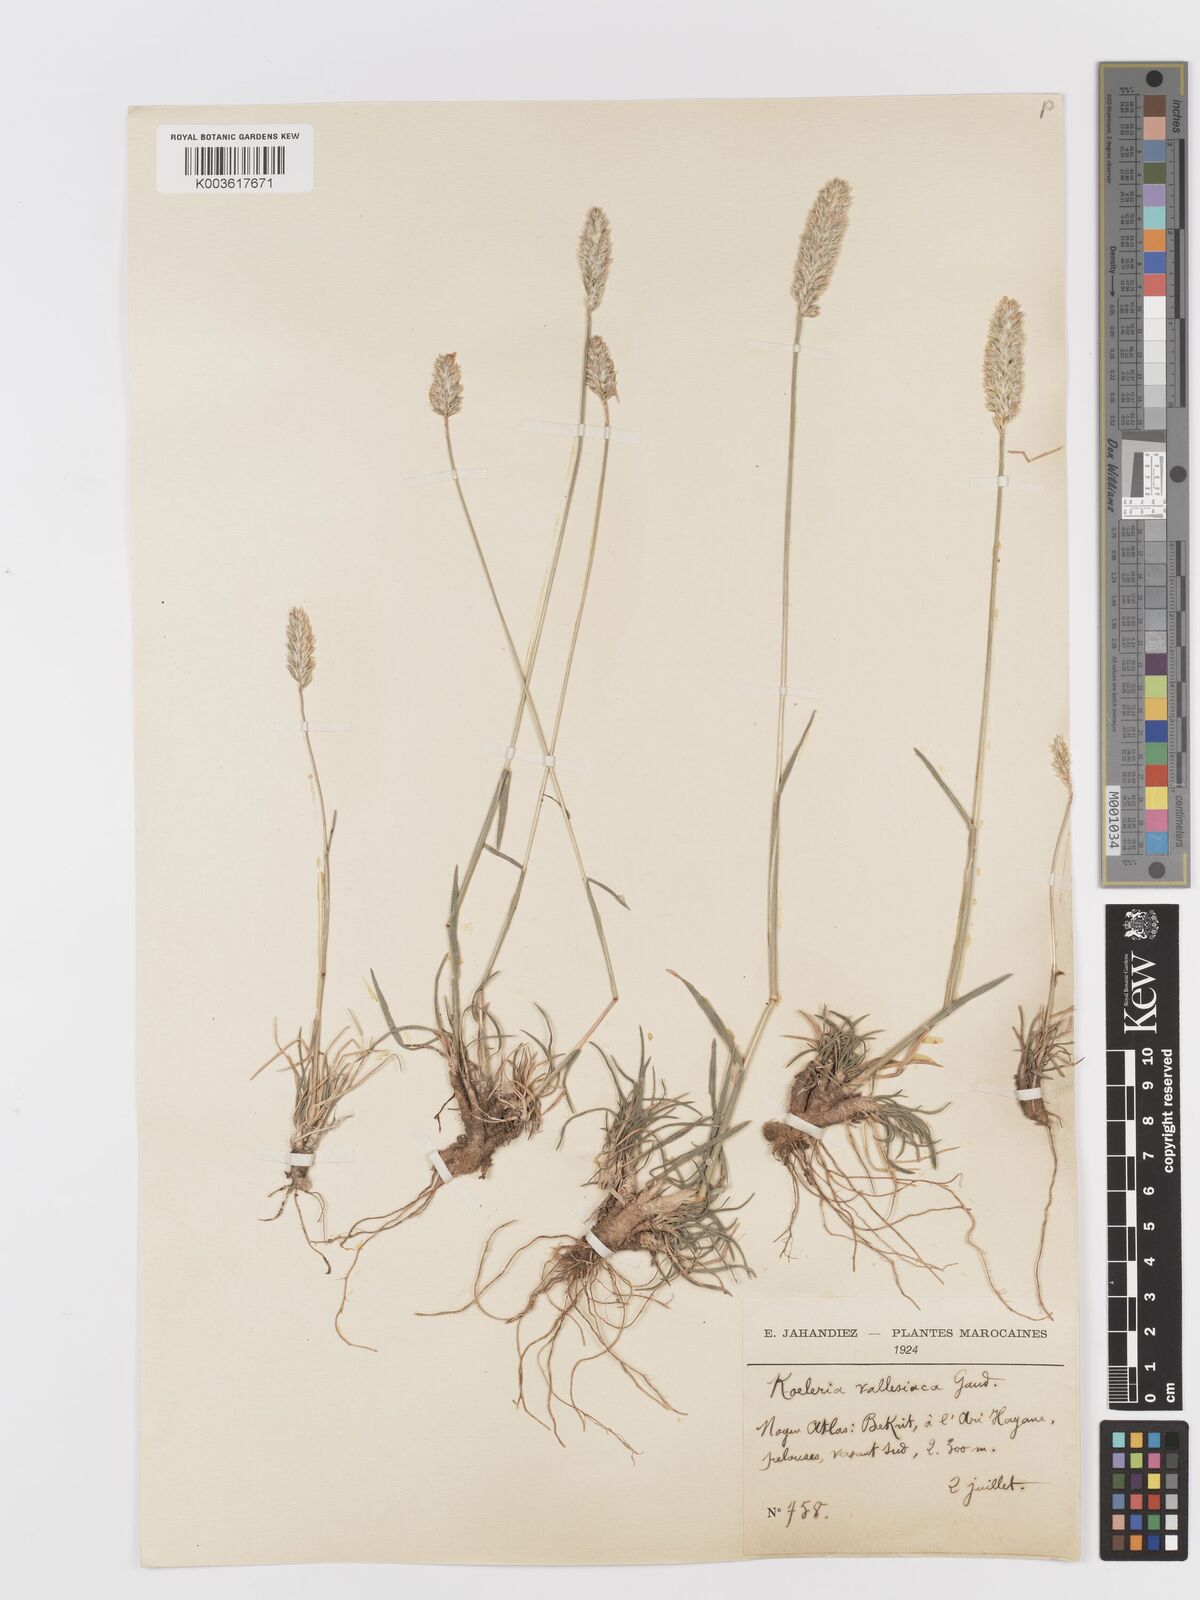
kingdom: Plantae
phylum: Tracheophyta
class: Liliopsida
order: Poales
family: Poaceae
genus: Koeleria
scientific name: Koeleria vallesiana
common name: Somerset hair-grass
